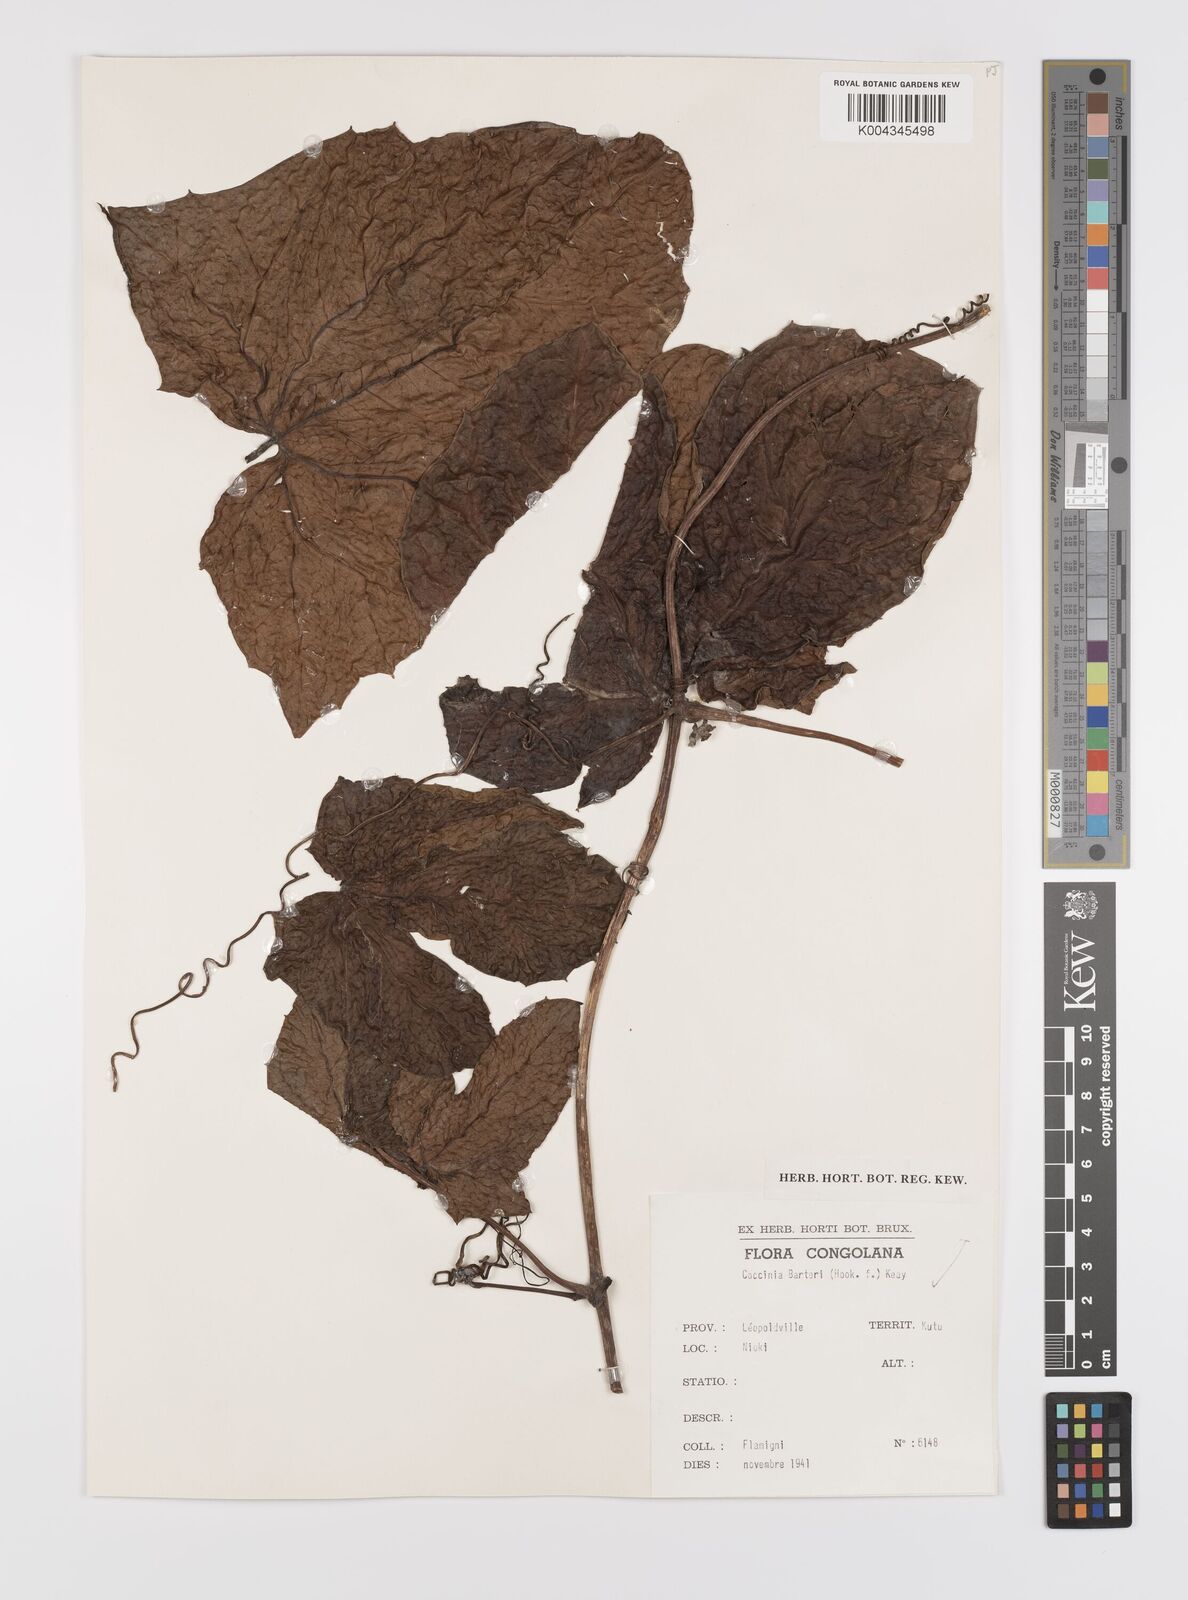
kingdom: Plantae
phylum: Tracheophyta
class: Magnoliopsida
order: Cucurbitales
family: Cucurbitaceae
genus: Coccinia
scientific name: Coccinia barteri
